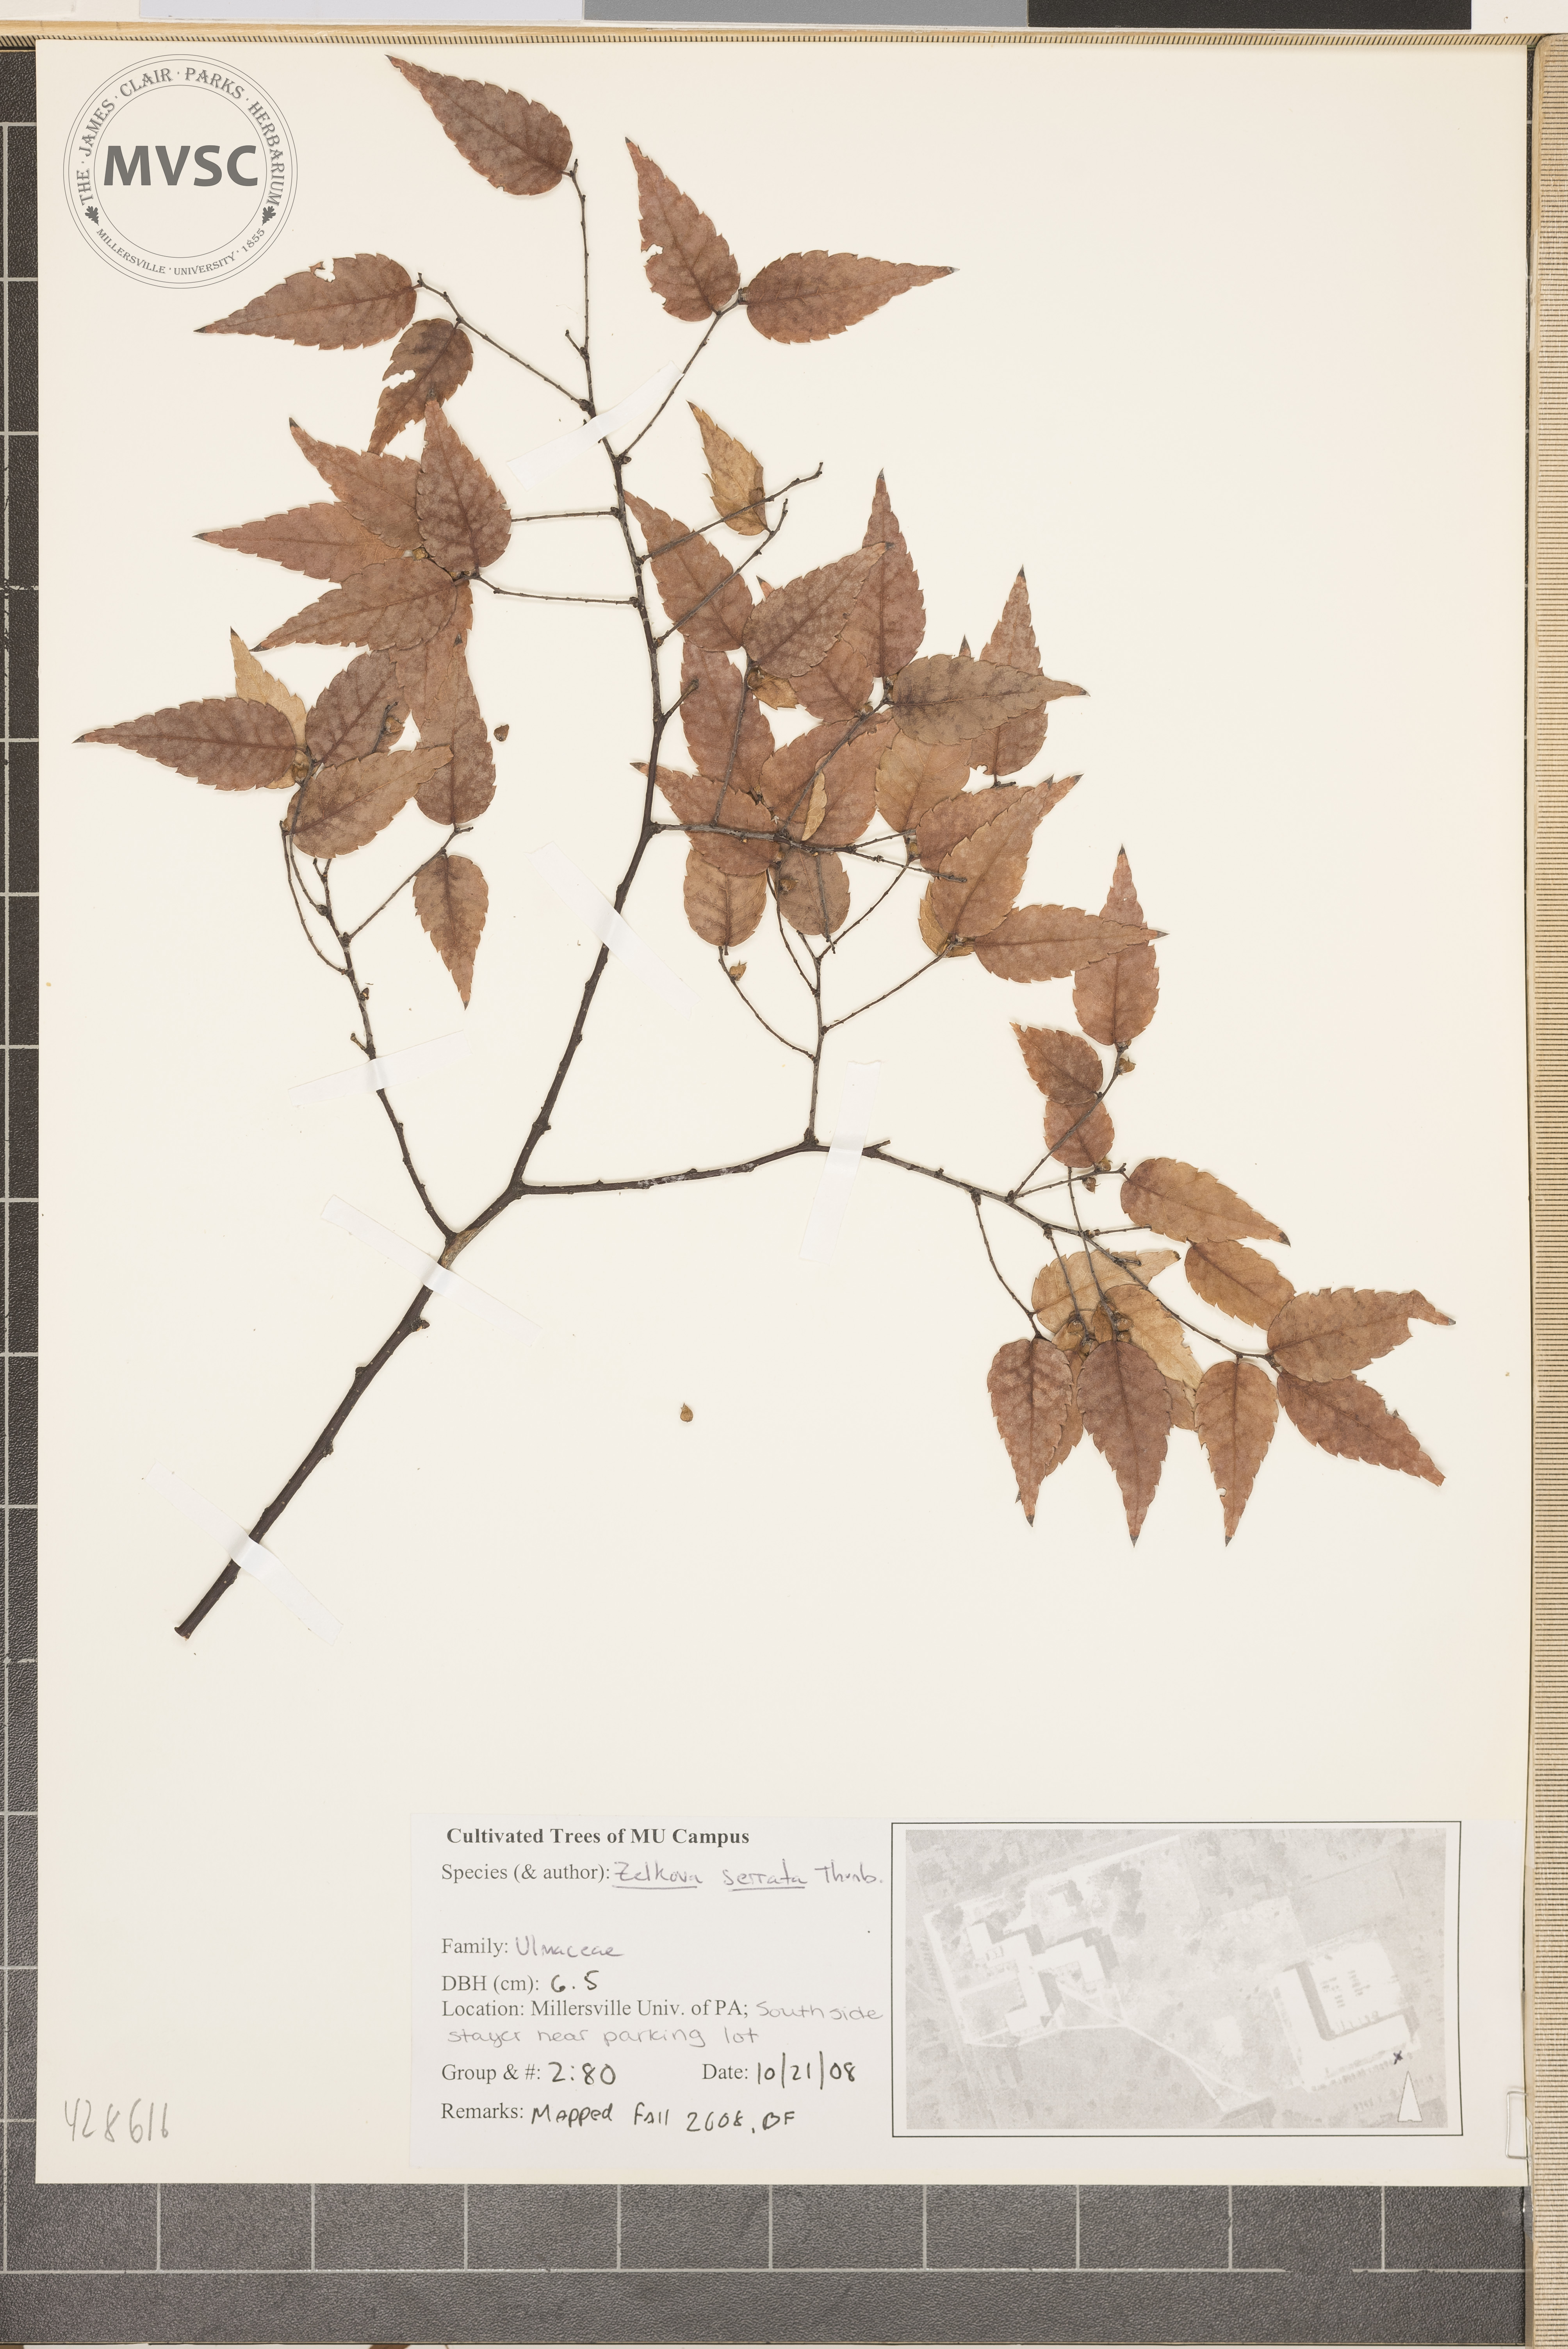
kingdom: Plantae
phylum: Tracheophyta
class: Magnoliopsida
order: Rosales
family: Ulmaceae
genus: Zelkova
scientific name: Zelkova serrata
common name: Japanese Zelkova
